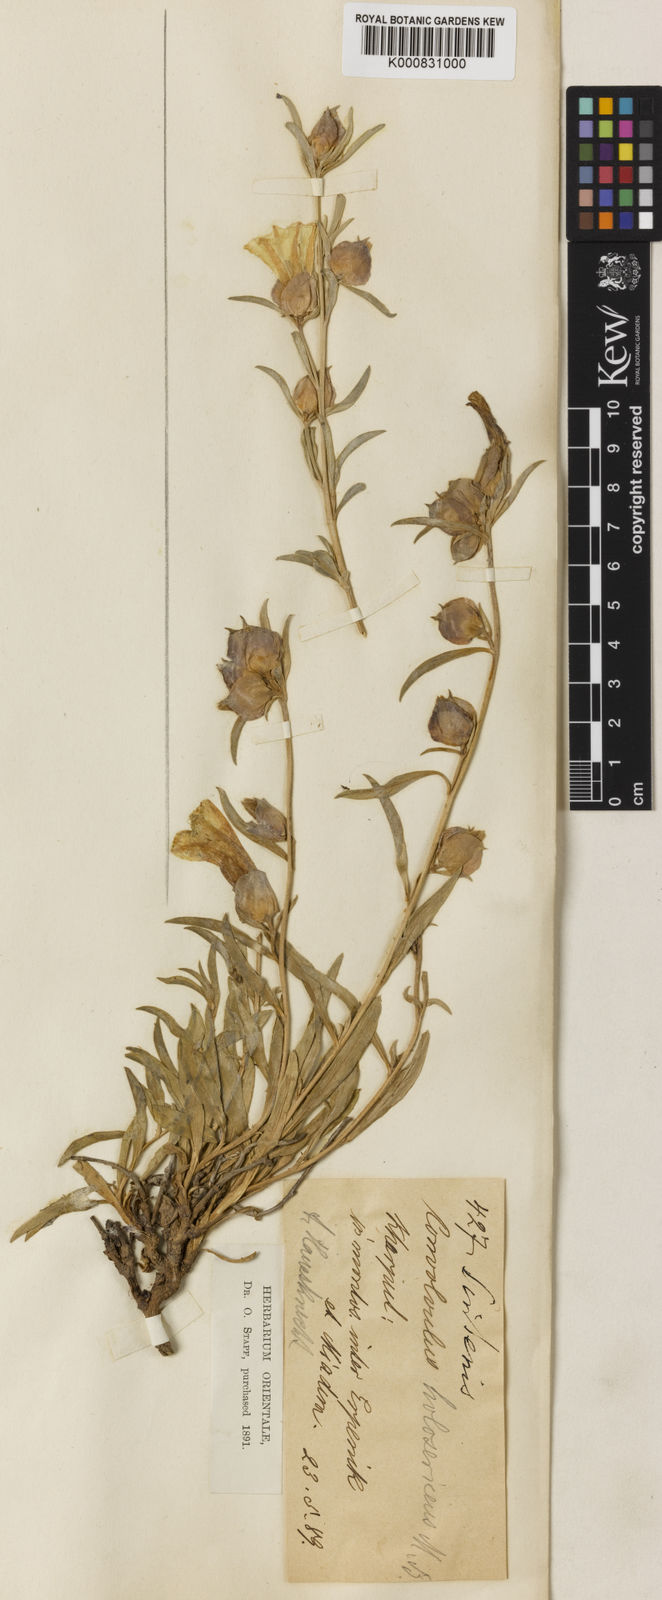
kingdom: Plantae
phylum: Tracheophyta
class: Magnoliopsida
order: Solanales
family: Convolvulaceae
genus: Convolvulus
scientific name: Convolvulus holosericeus
